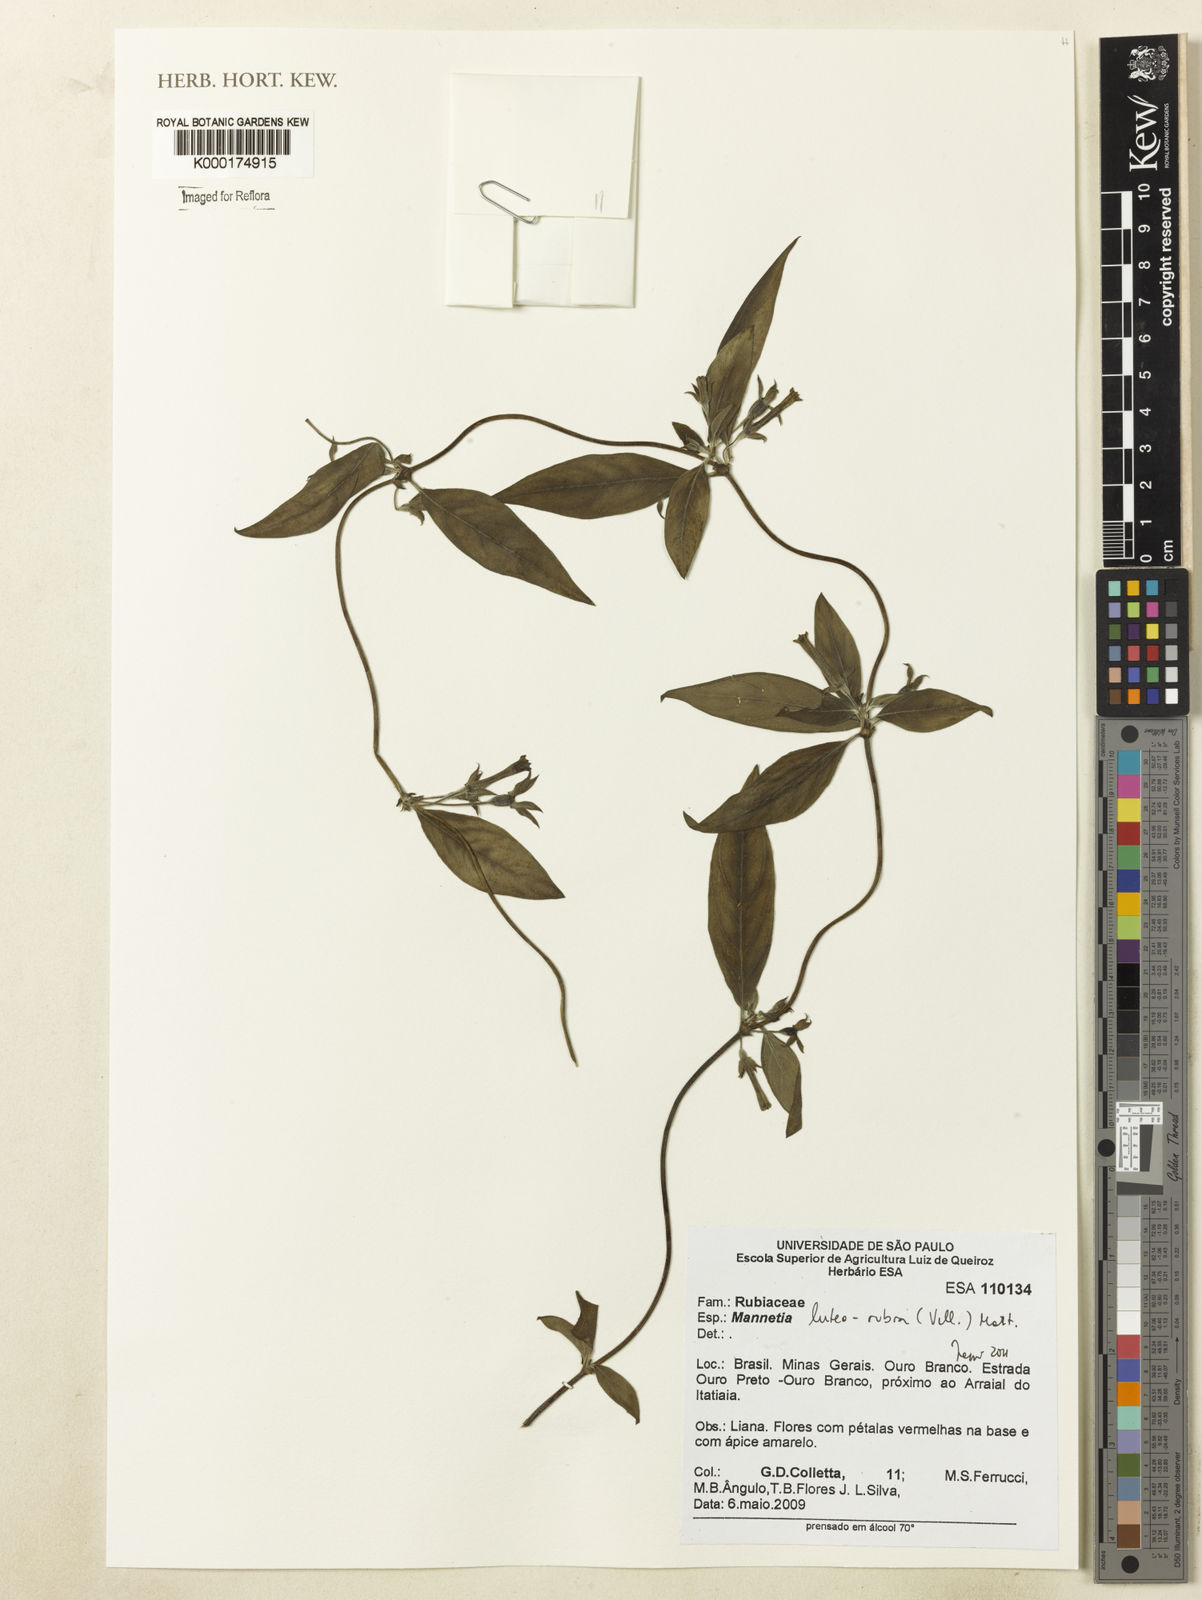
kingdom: Plantae
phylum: Tracheophyta
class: Magnoliopsida
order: Gentianales
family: Rubiaceae
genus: Manettia
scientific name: Manettia luteorubra
